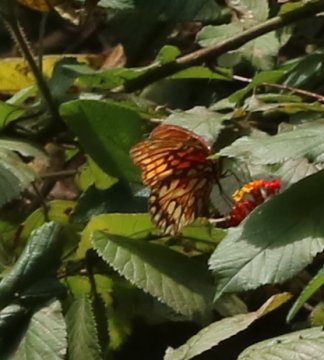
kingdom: Animalia
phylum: Arthropoda
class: Insecta
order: Lepidoptera
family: Nymphalidae
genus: Dione
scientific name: Dione vanillae
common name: Gulf Fritillary
